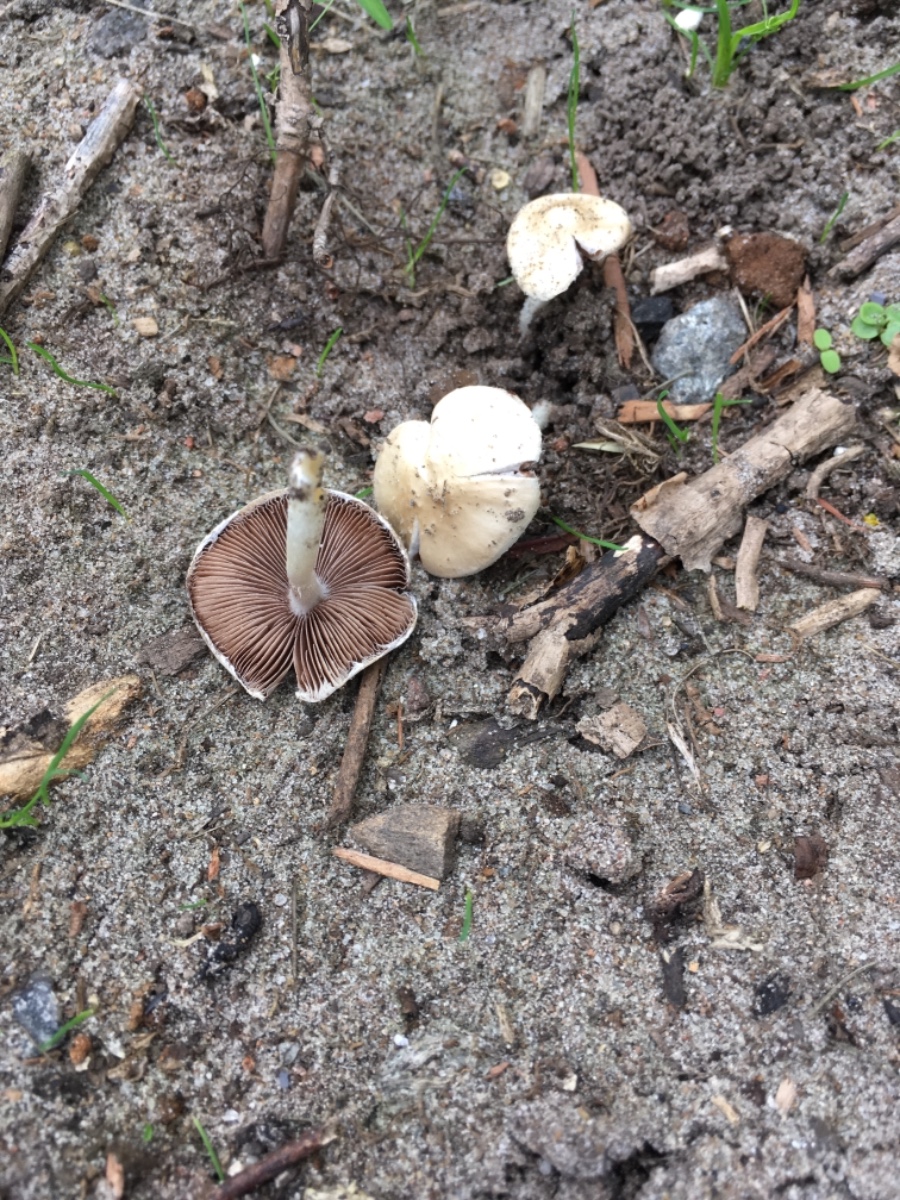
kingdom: Fungi
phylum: Basidiomycota
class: Agaricomycetes
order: Agaricales
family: Psathyrellaceae
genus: Candolleomyces
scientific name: Candolleomyces candolleanus
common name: Candolles mørkhat
